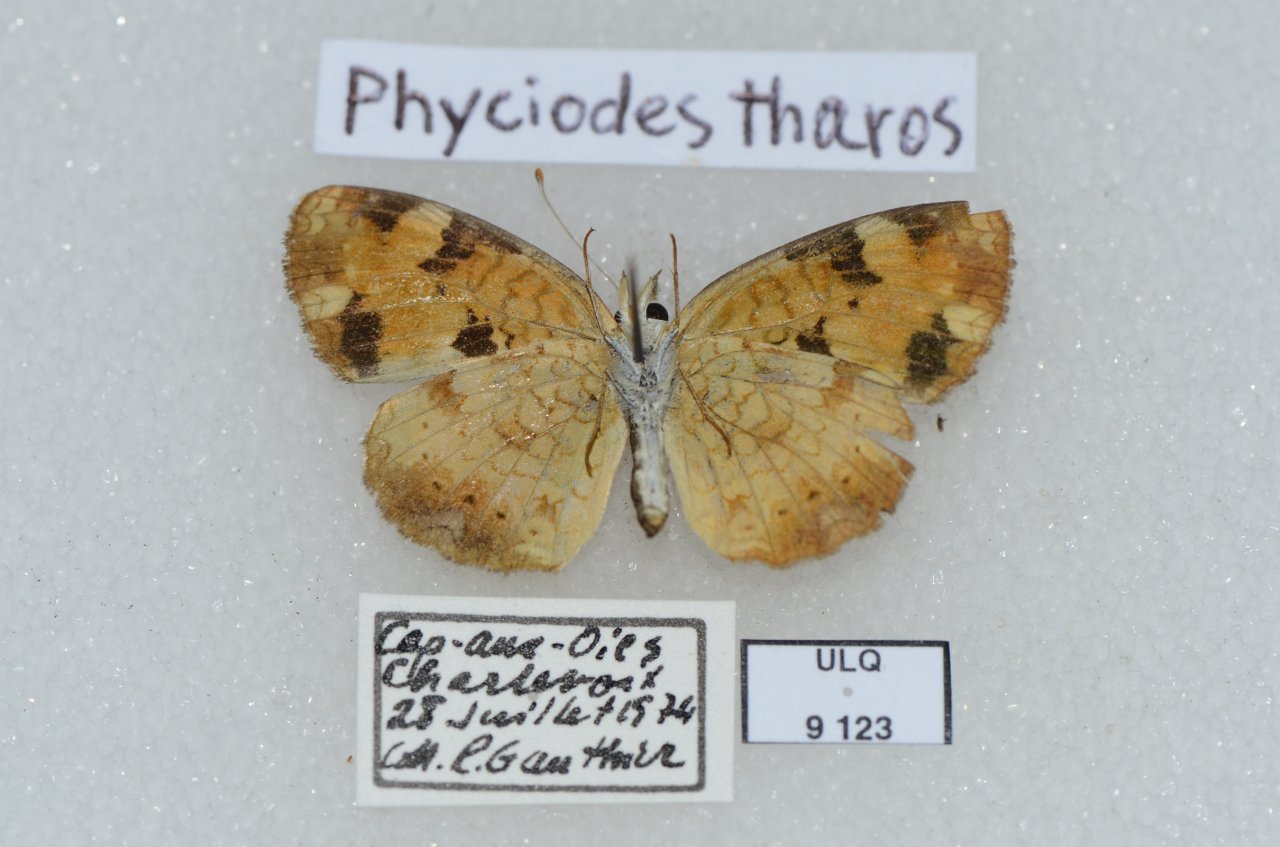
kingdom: Animalia
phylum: Arthropoda
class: Insecta
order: Lepidoptera
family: Nymphalidae
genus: Phyciodes
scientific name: Phyciodes tharos
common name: Northern Crescent
